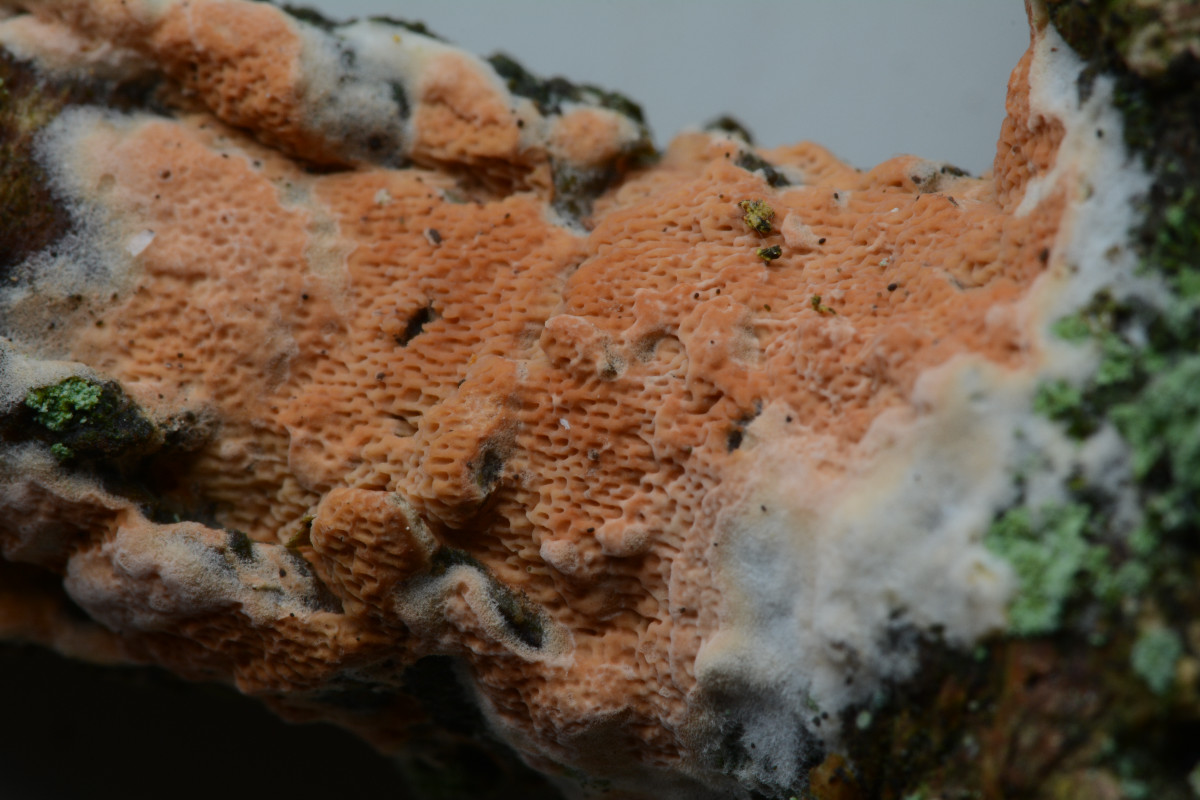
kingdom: Fungi
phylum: Basidiomycota
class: Agaricomycetes
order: Polyporales
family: Irpicaceae
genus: Meruliopsis
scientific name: Meruliopsis taxicola
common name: purpurbrun foldporesvamp
